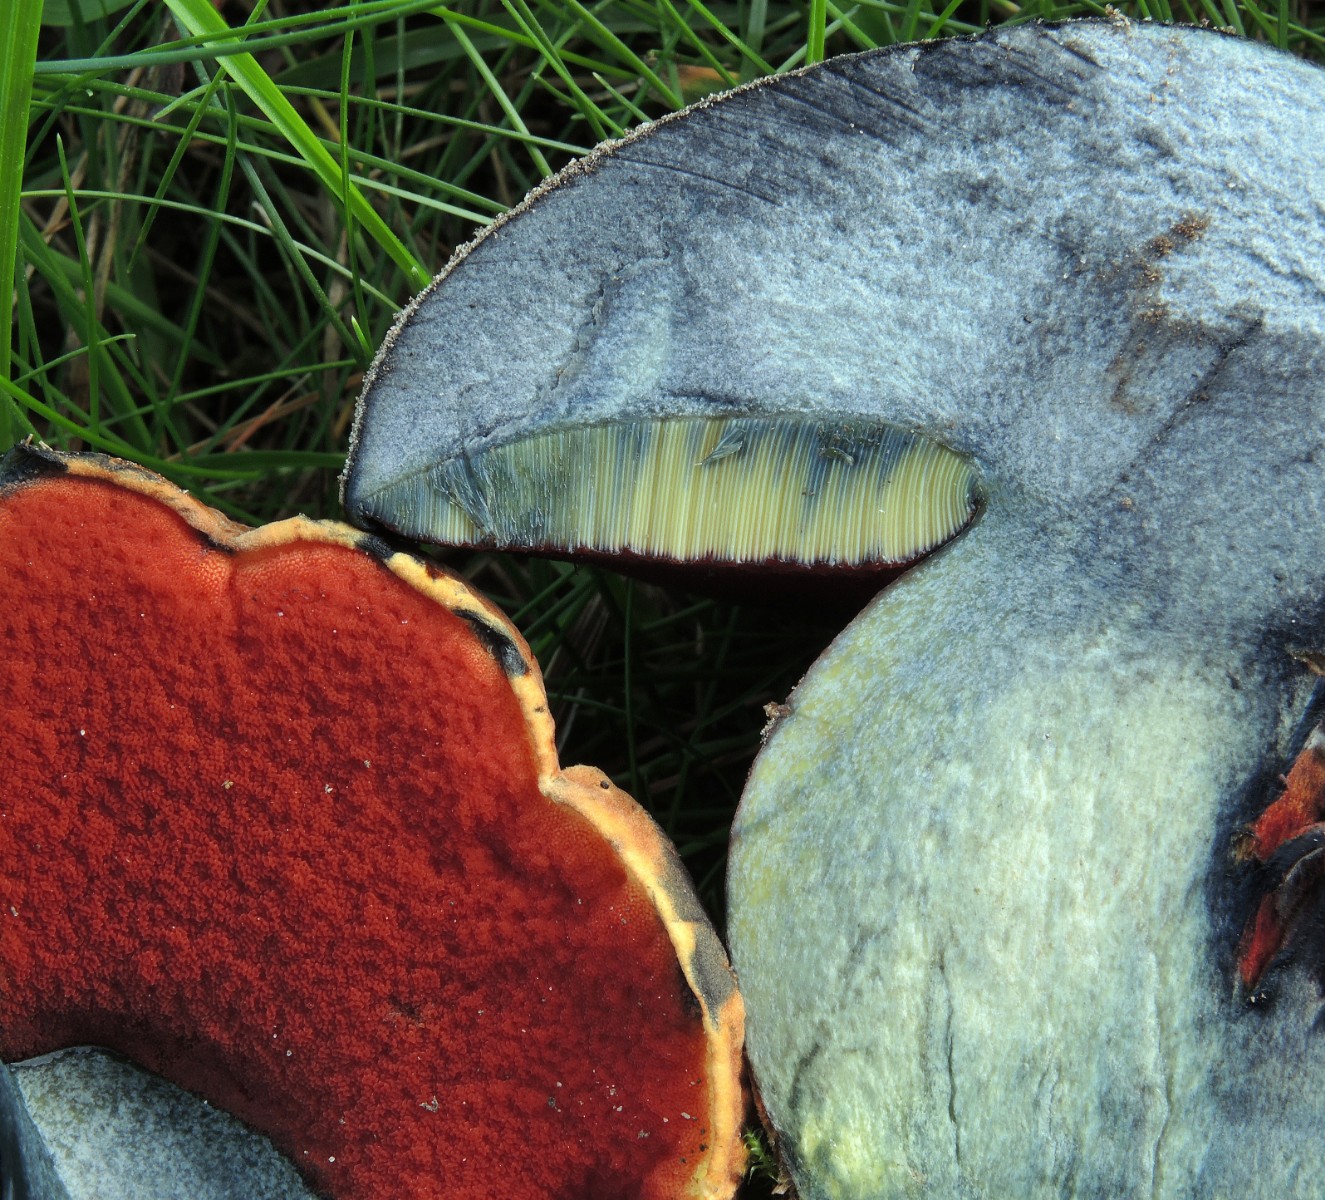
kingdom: Fungi
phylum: Basidiomycota
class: Agaricomycetes
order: Boletales
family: Boletaceae
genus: Neoboletus
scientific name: Neoboletus erythropus
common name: punktstokket indigorørhat
